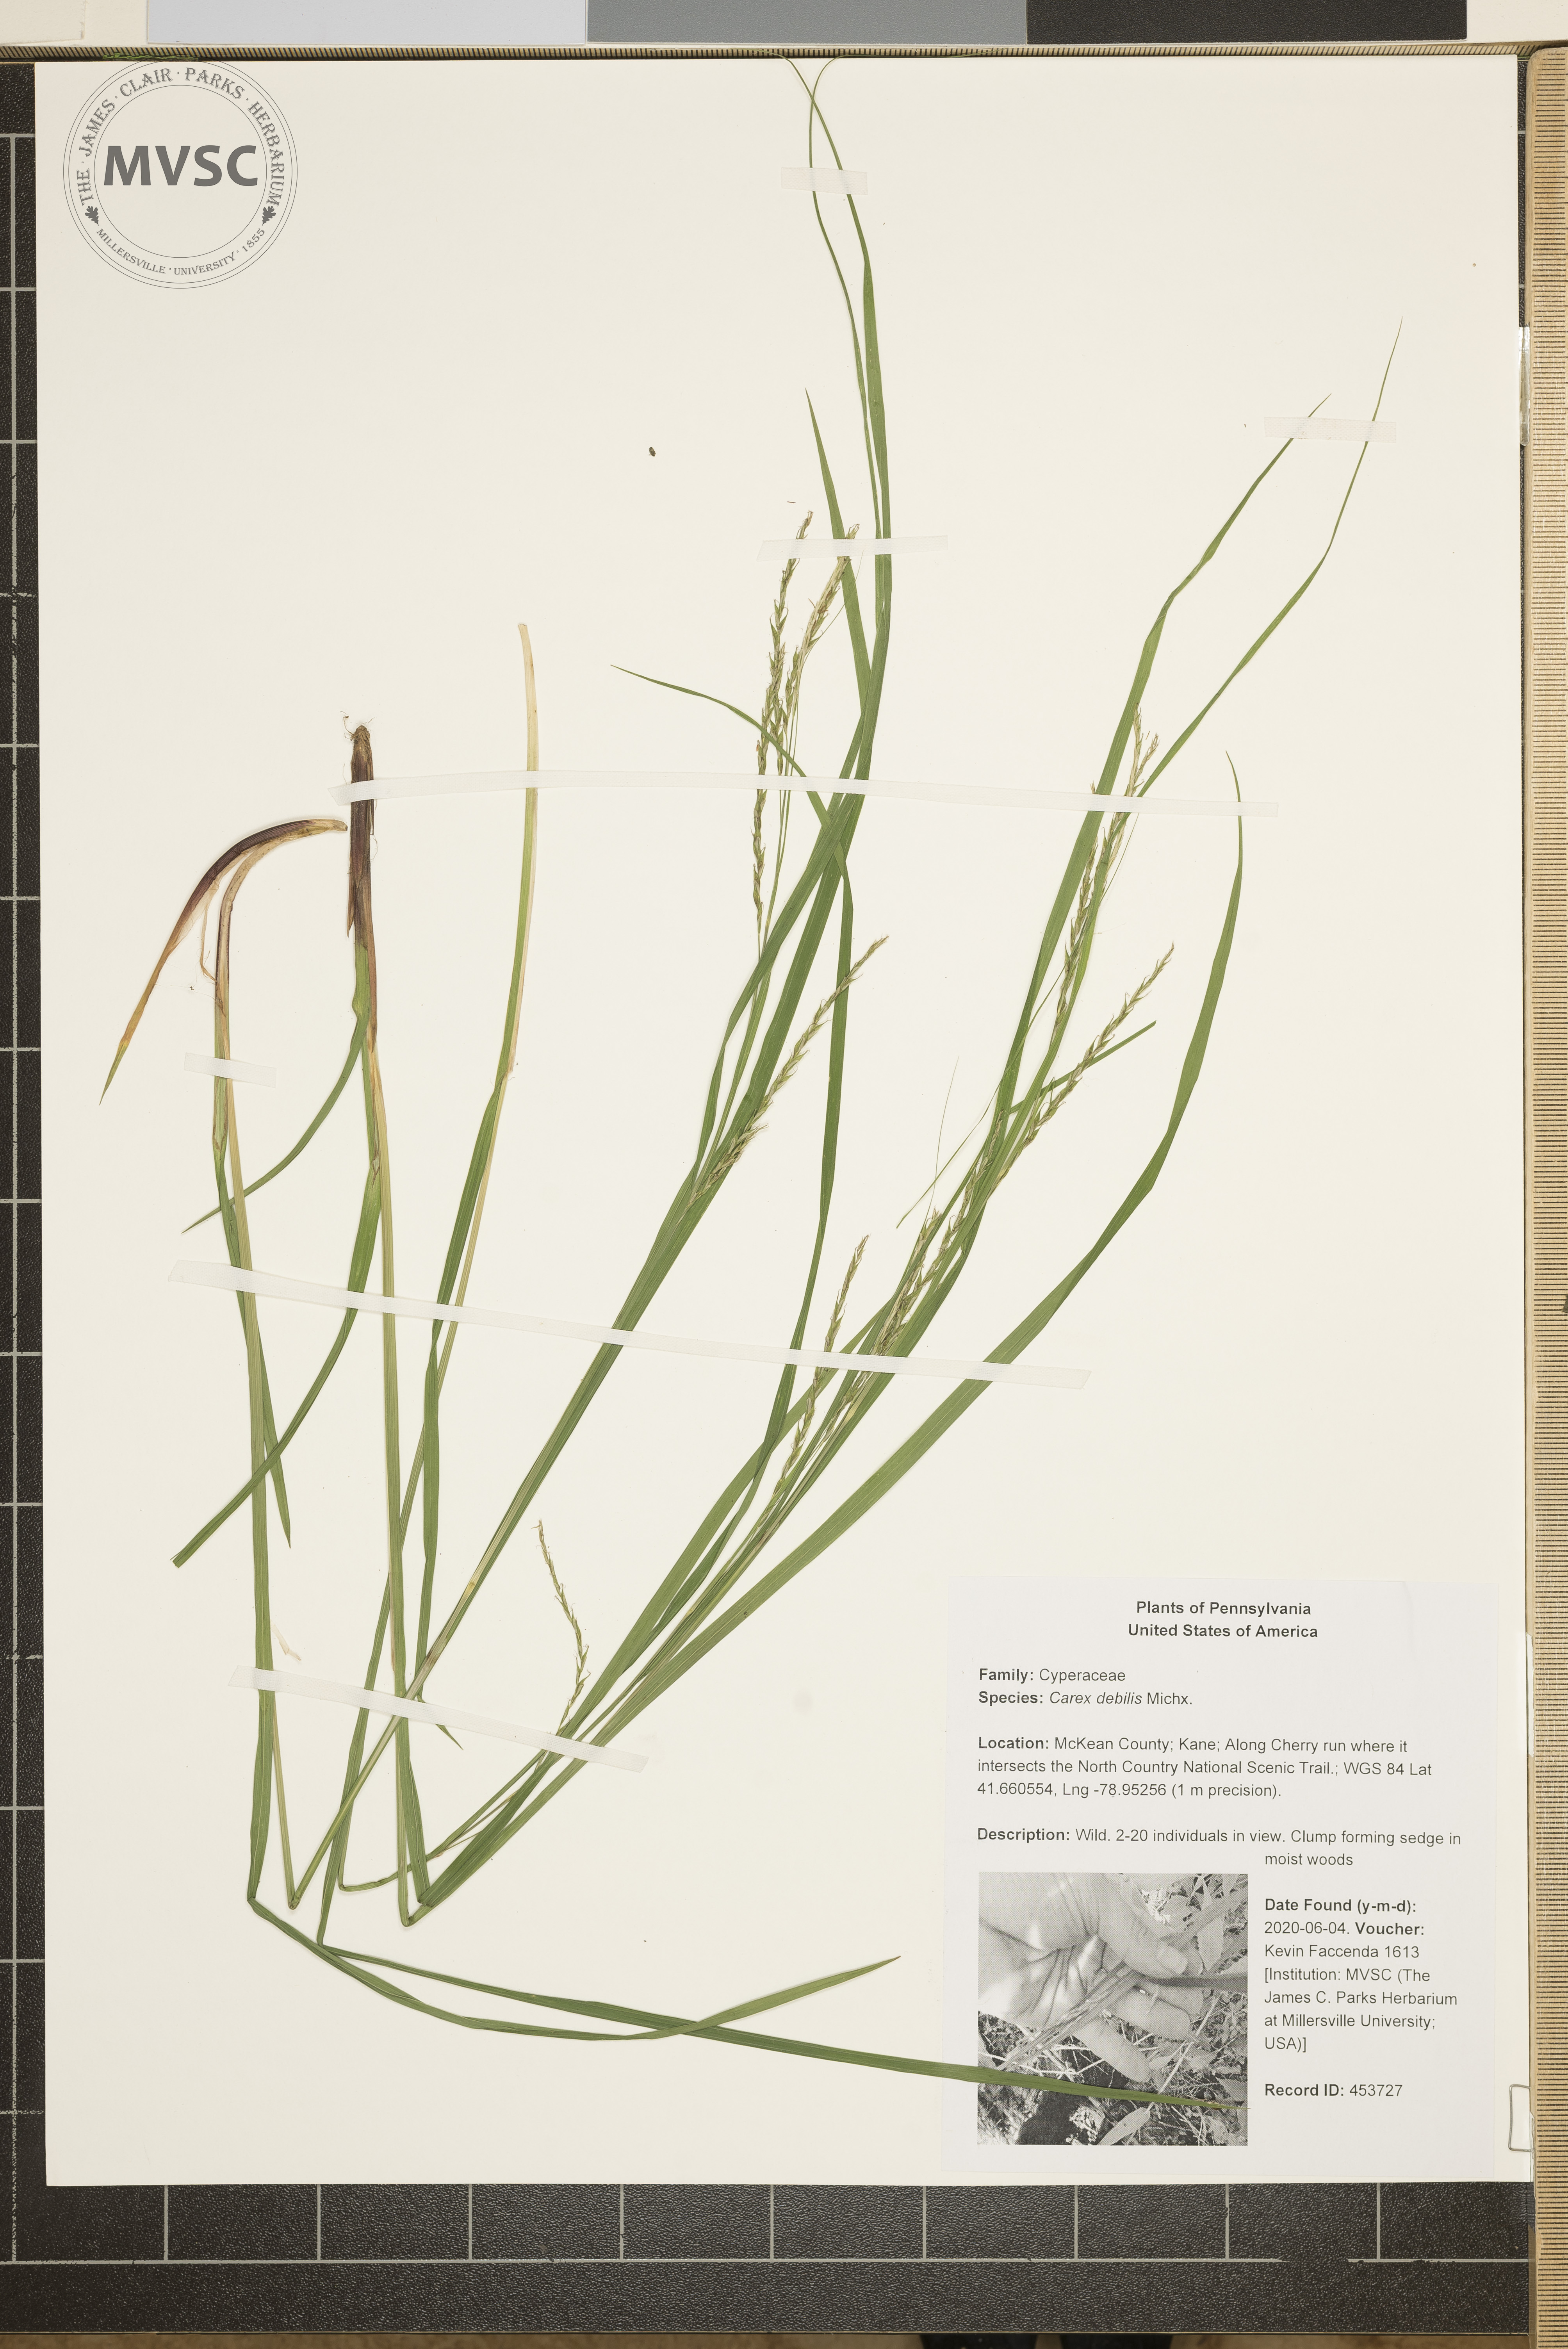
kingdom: Plantae
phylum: Tracheophyta
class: Liliopsida
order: Poales
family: Cyperaceae
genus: Carex
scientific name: Carex debilis
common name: White-edge sedge
